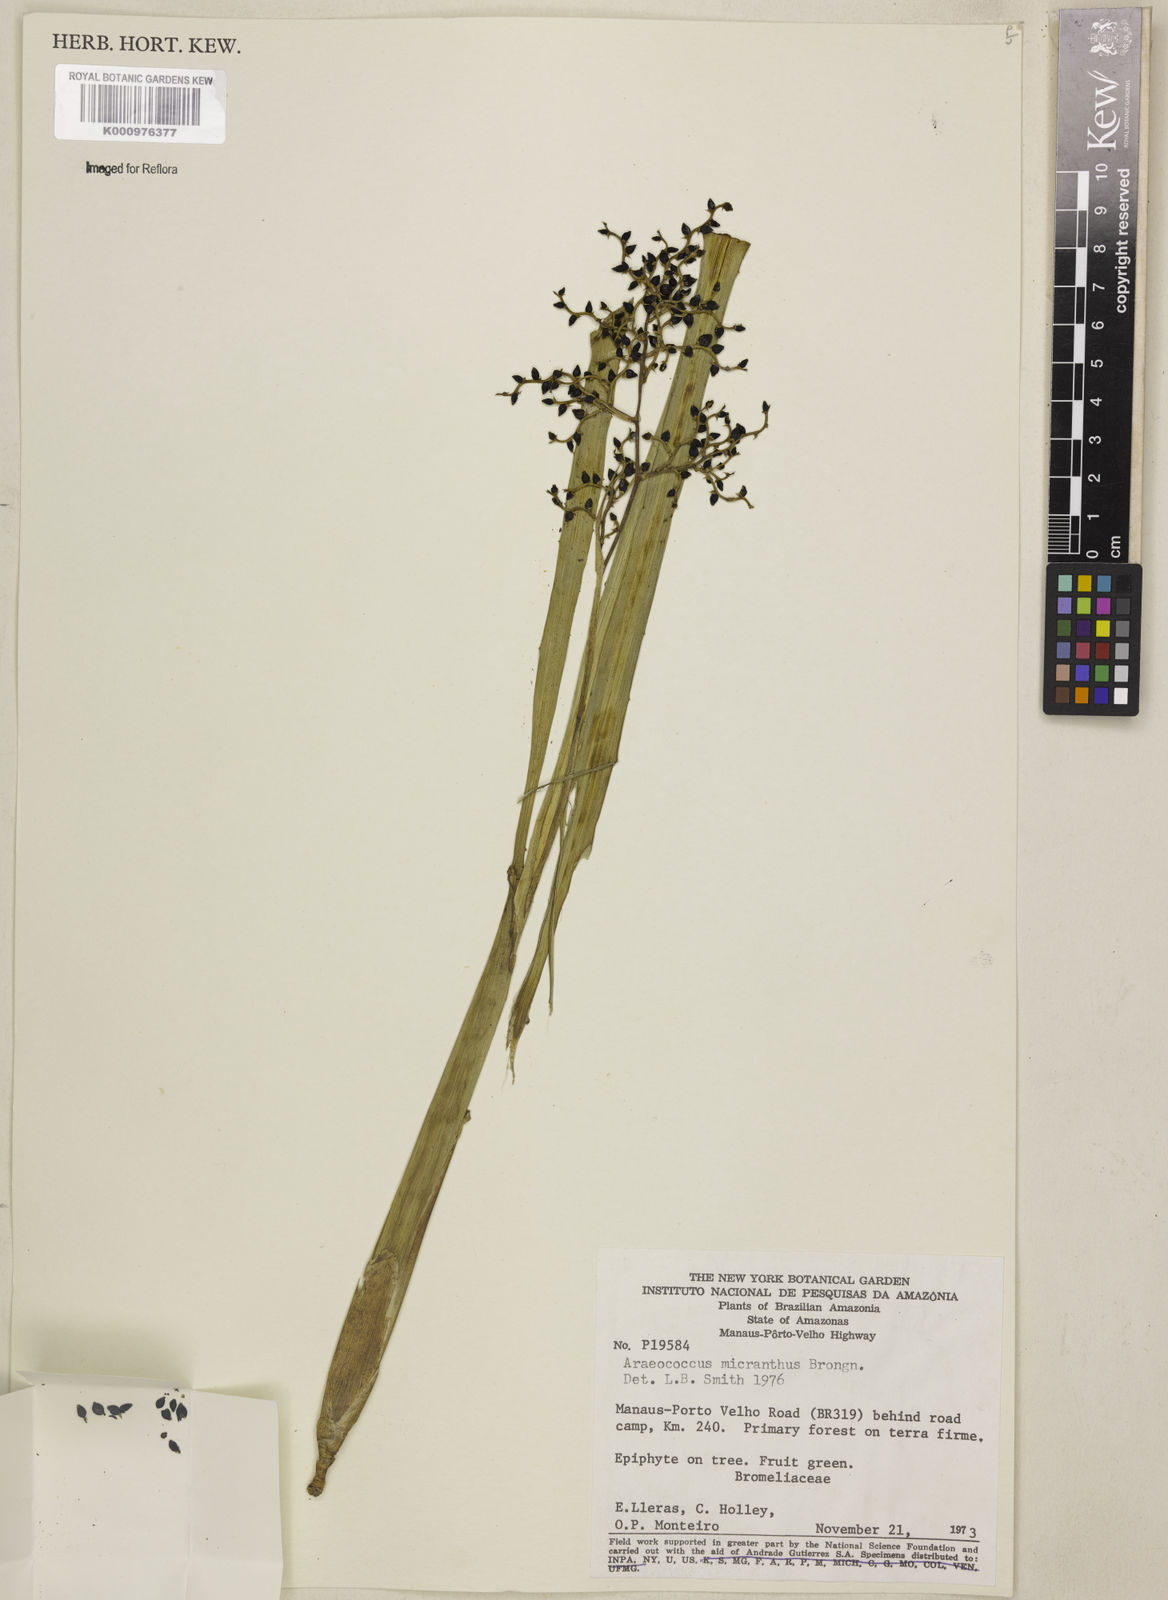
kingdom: Plantae
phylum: Tracheophyta
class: Liliopsida
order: Poales
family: Bromeliaceae
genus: Araeococcus
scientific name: Araeococcus micranthus
